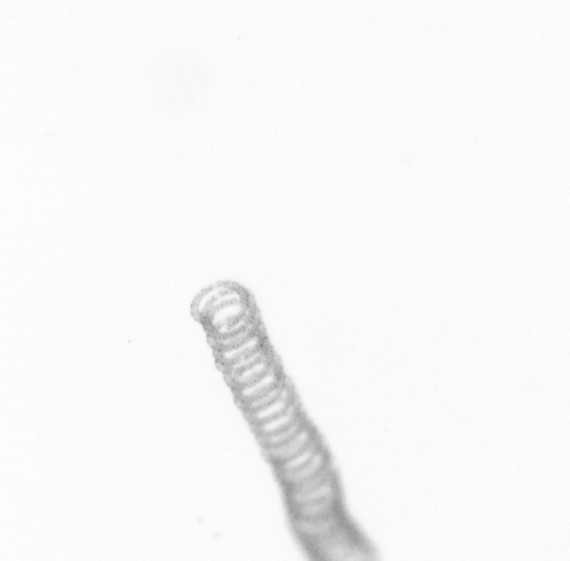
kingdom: Chromista
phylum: Ochrophyta
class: Bacillariophyceae
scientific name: Bacillariophyceae
